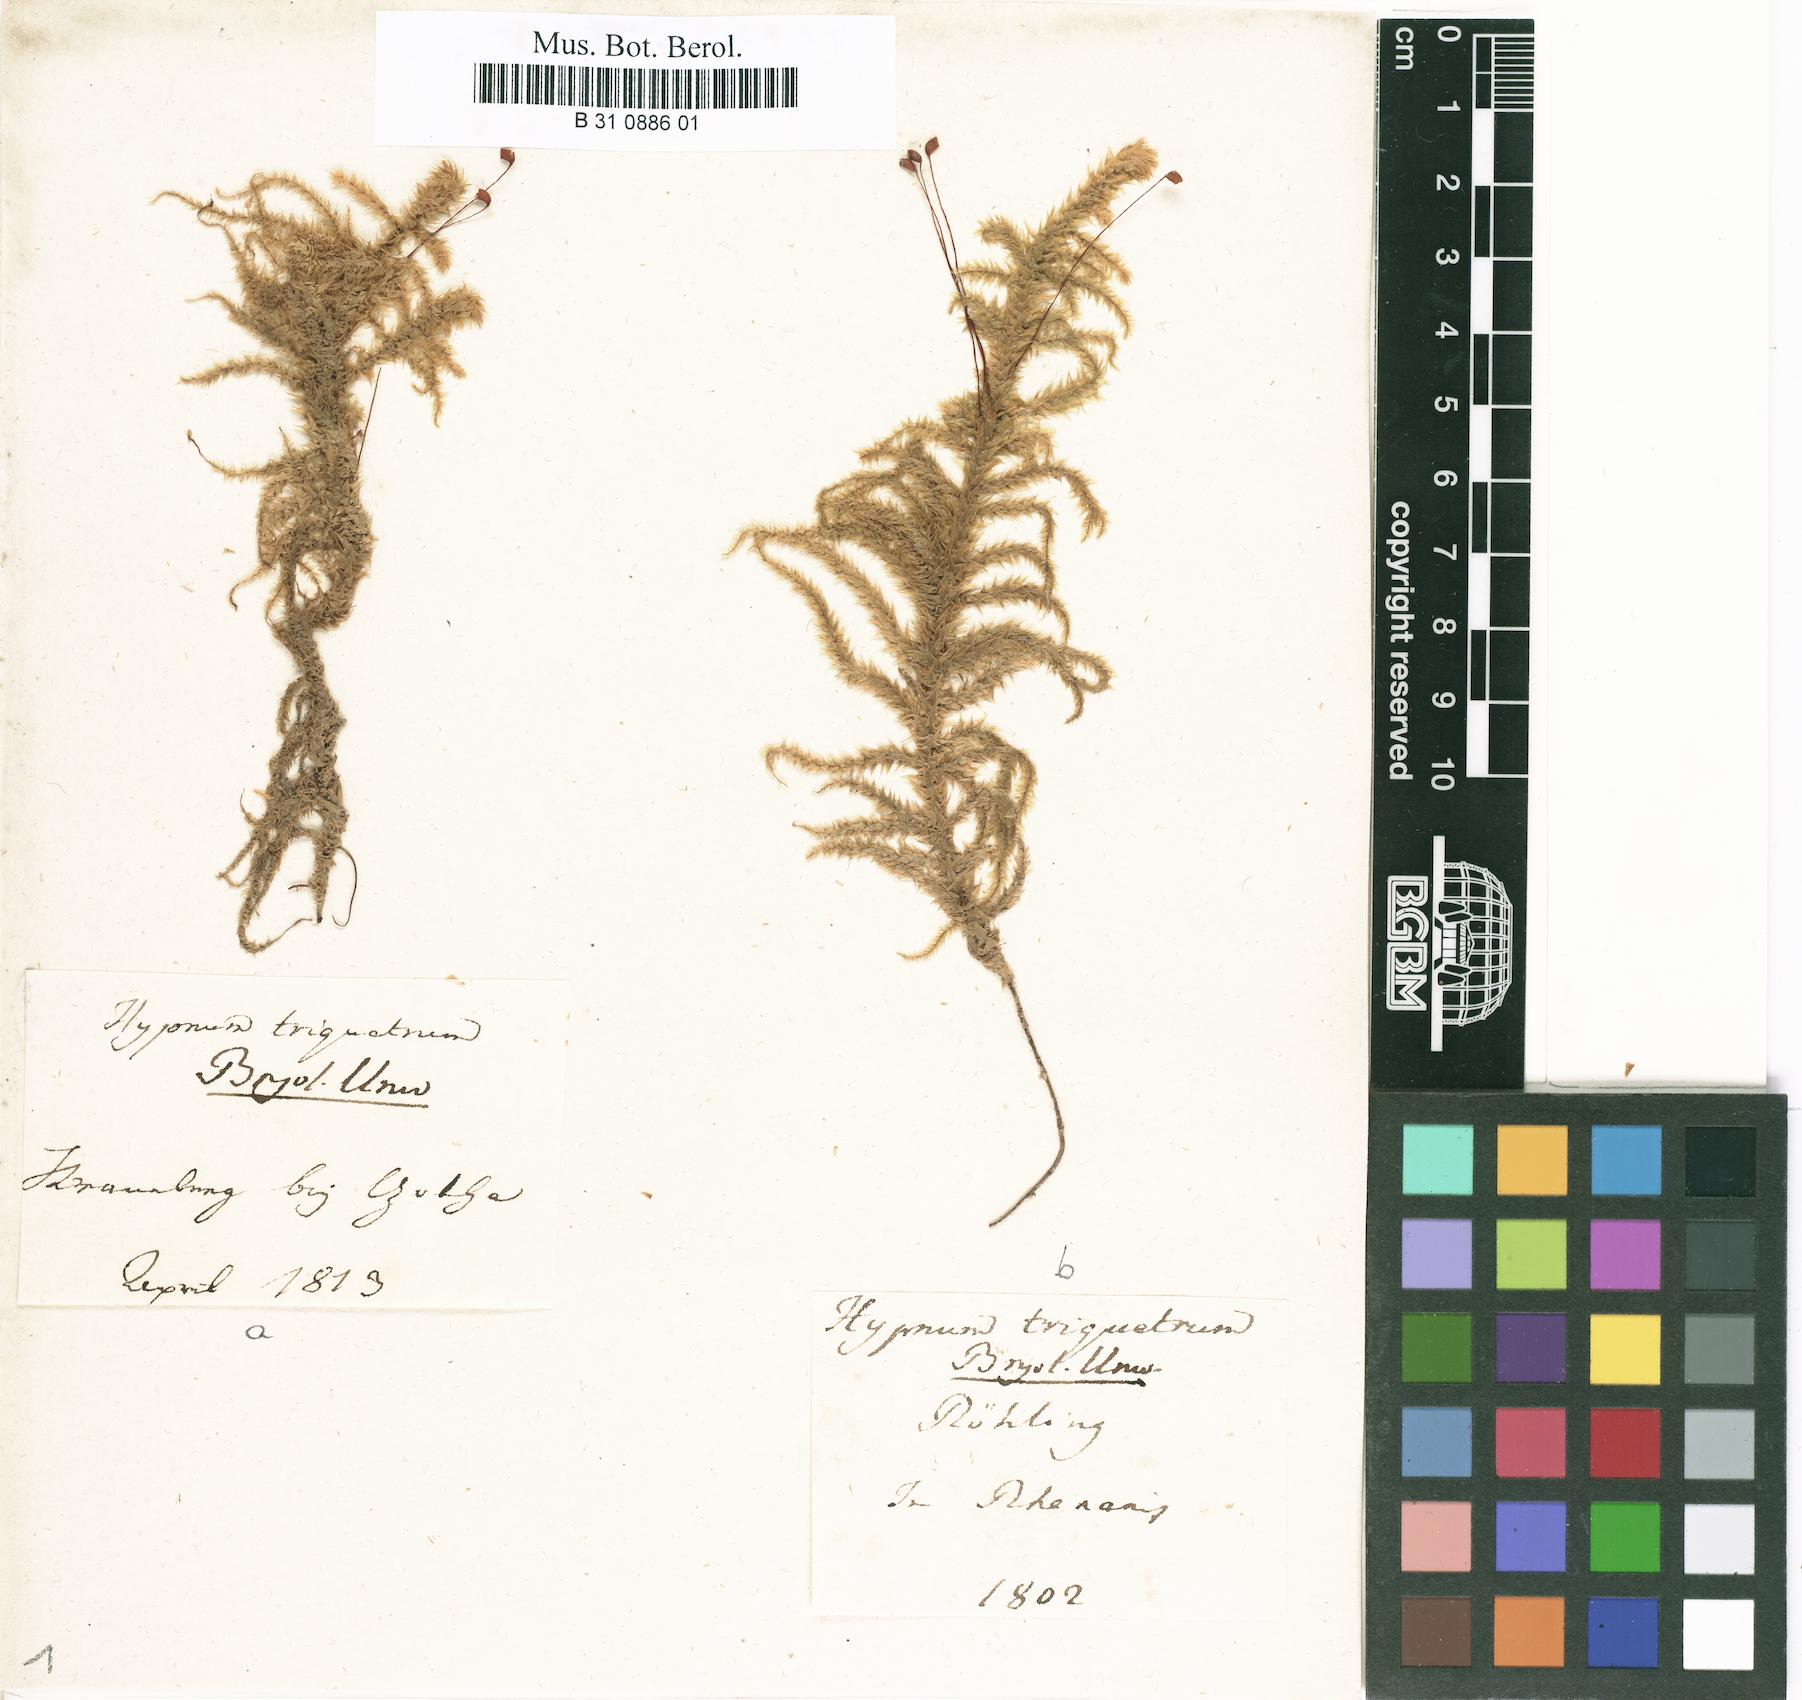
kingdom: Plantae
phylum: Bryophyta
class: Bryopsida
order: Hypnales
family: Hylocomiaceae
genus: Hylocomiadelphus
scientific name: Hylocomiadelphus triquetrus
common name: Rough goose neck moss
